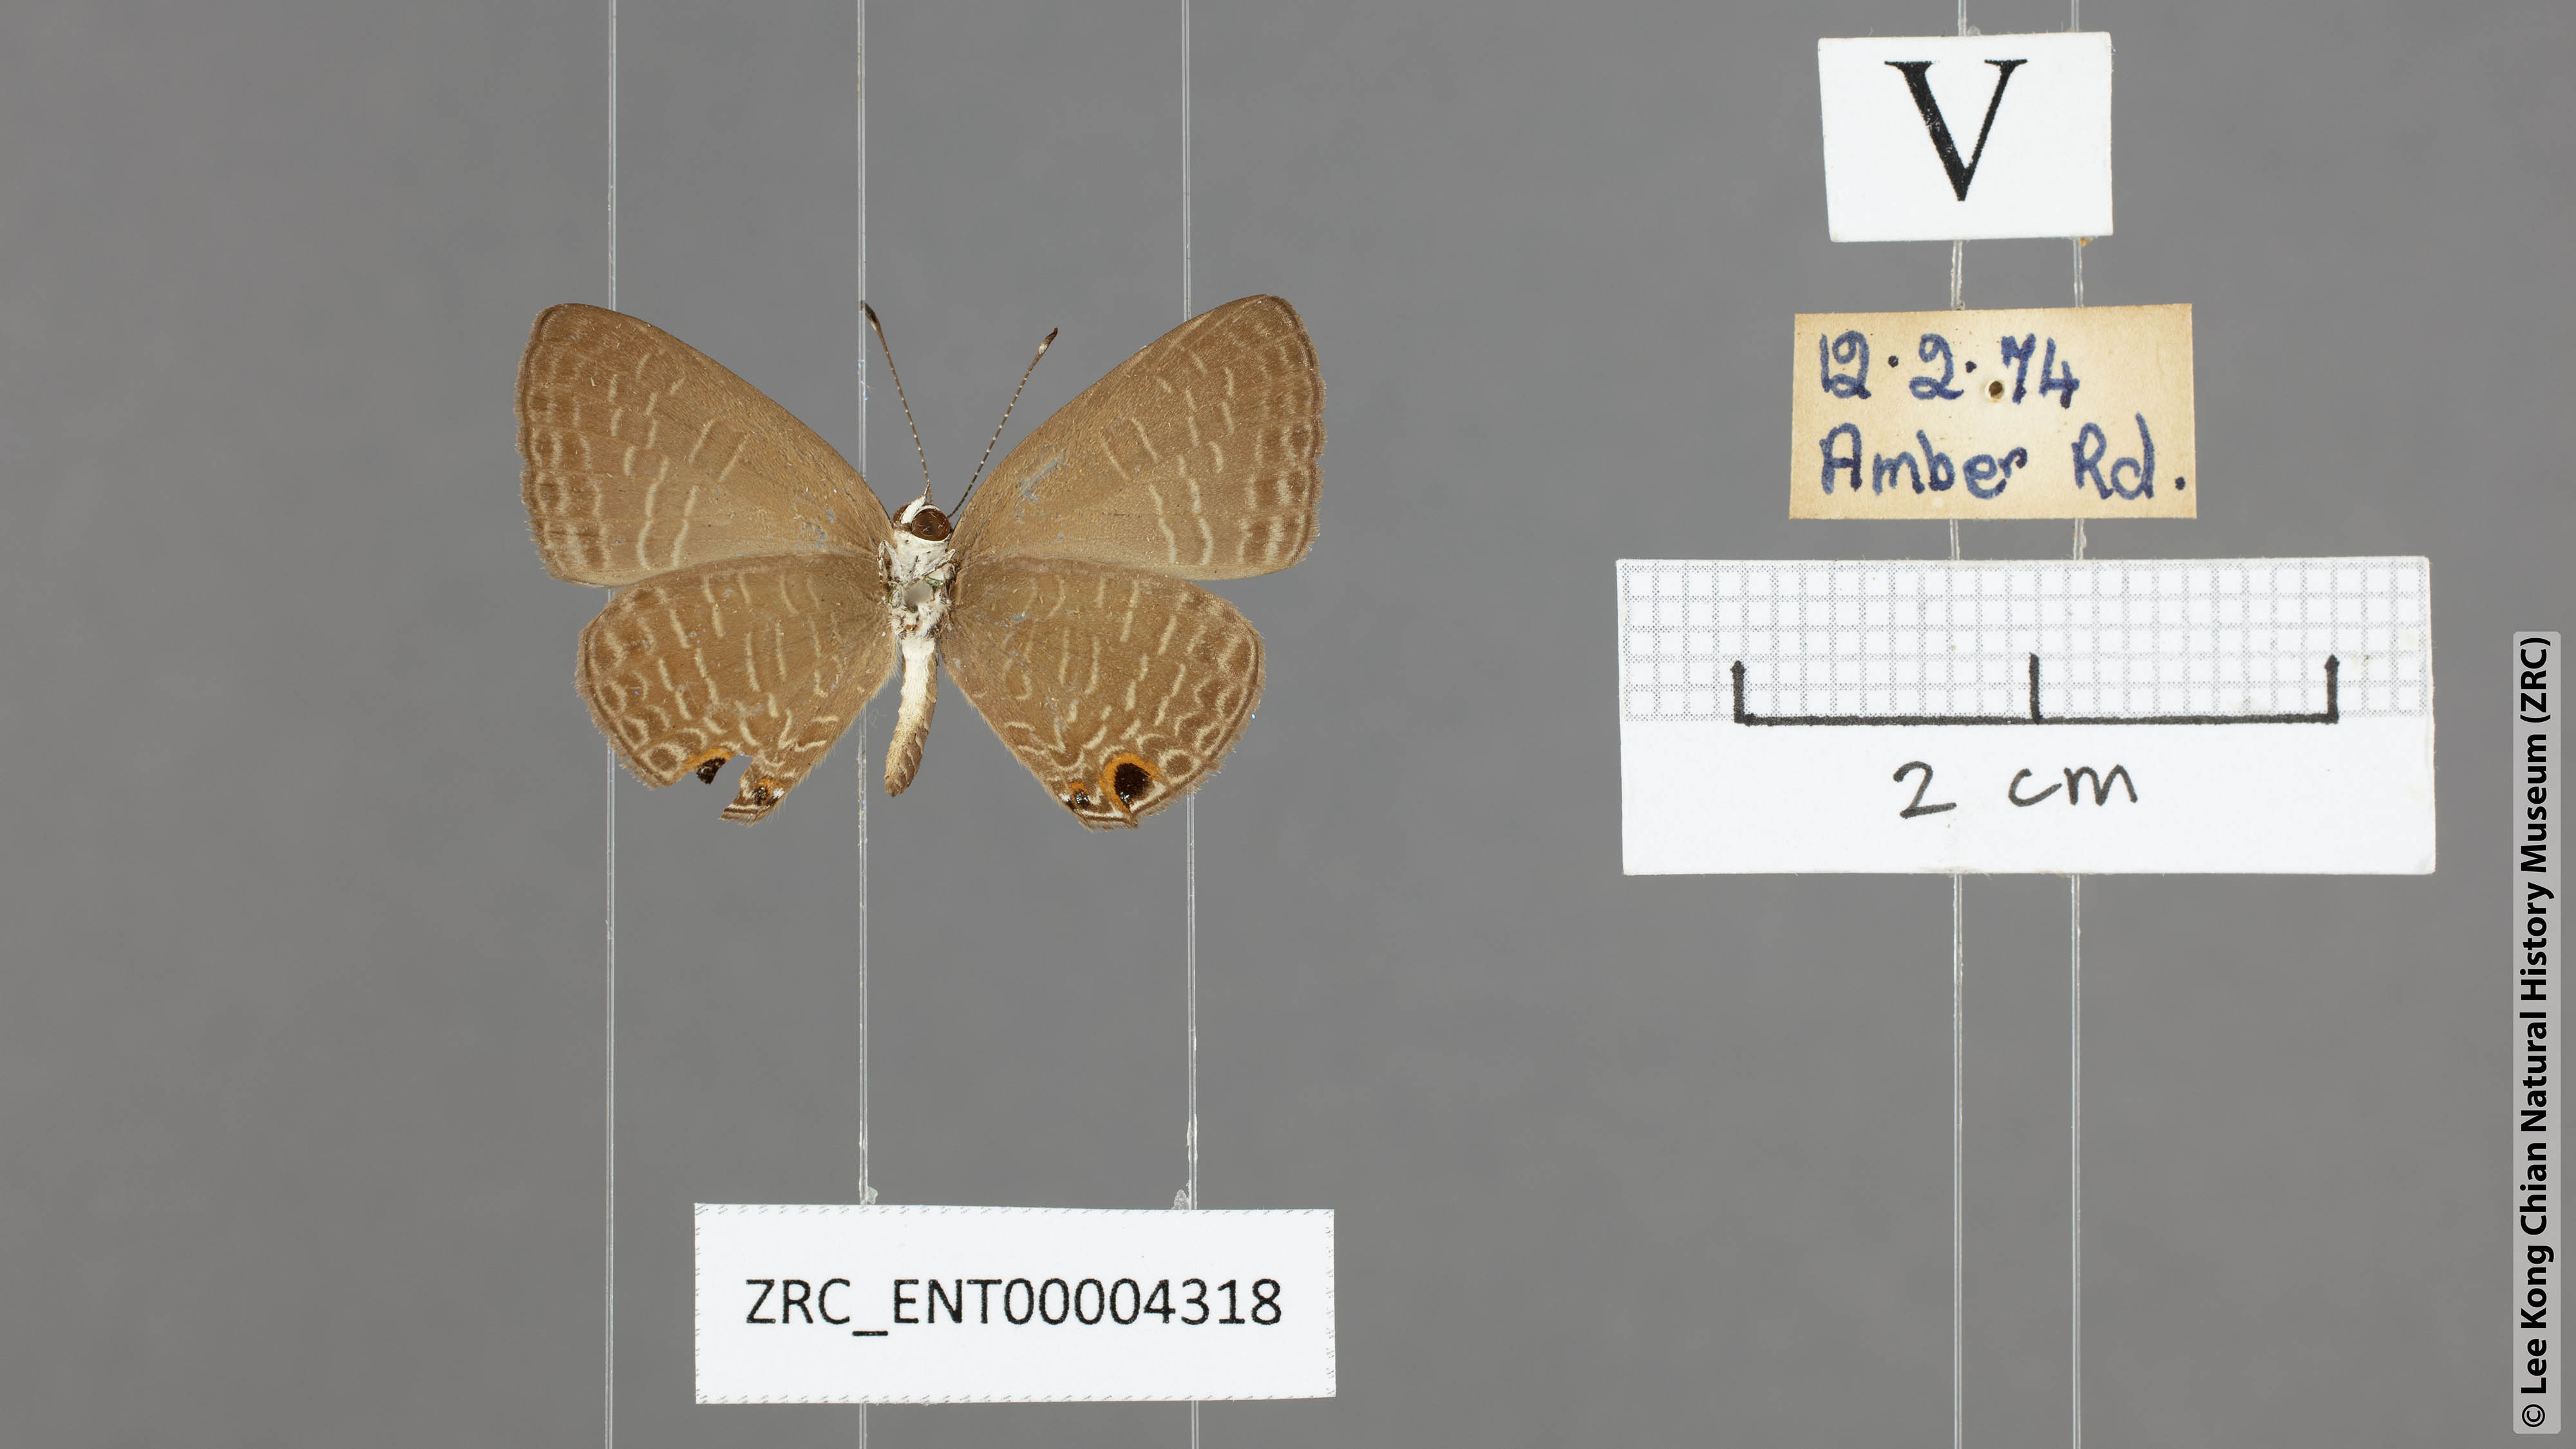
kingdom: Animalia
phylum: Arthropoda
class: Insecta
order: Lepidoptera
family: Lycaenidae
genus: Jamides
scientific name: Jamides bochus
